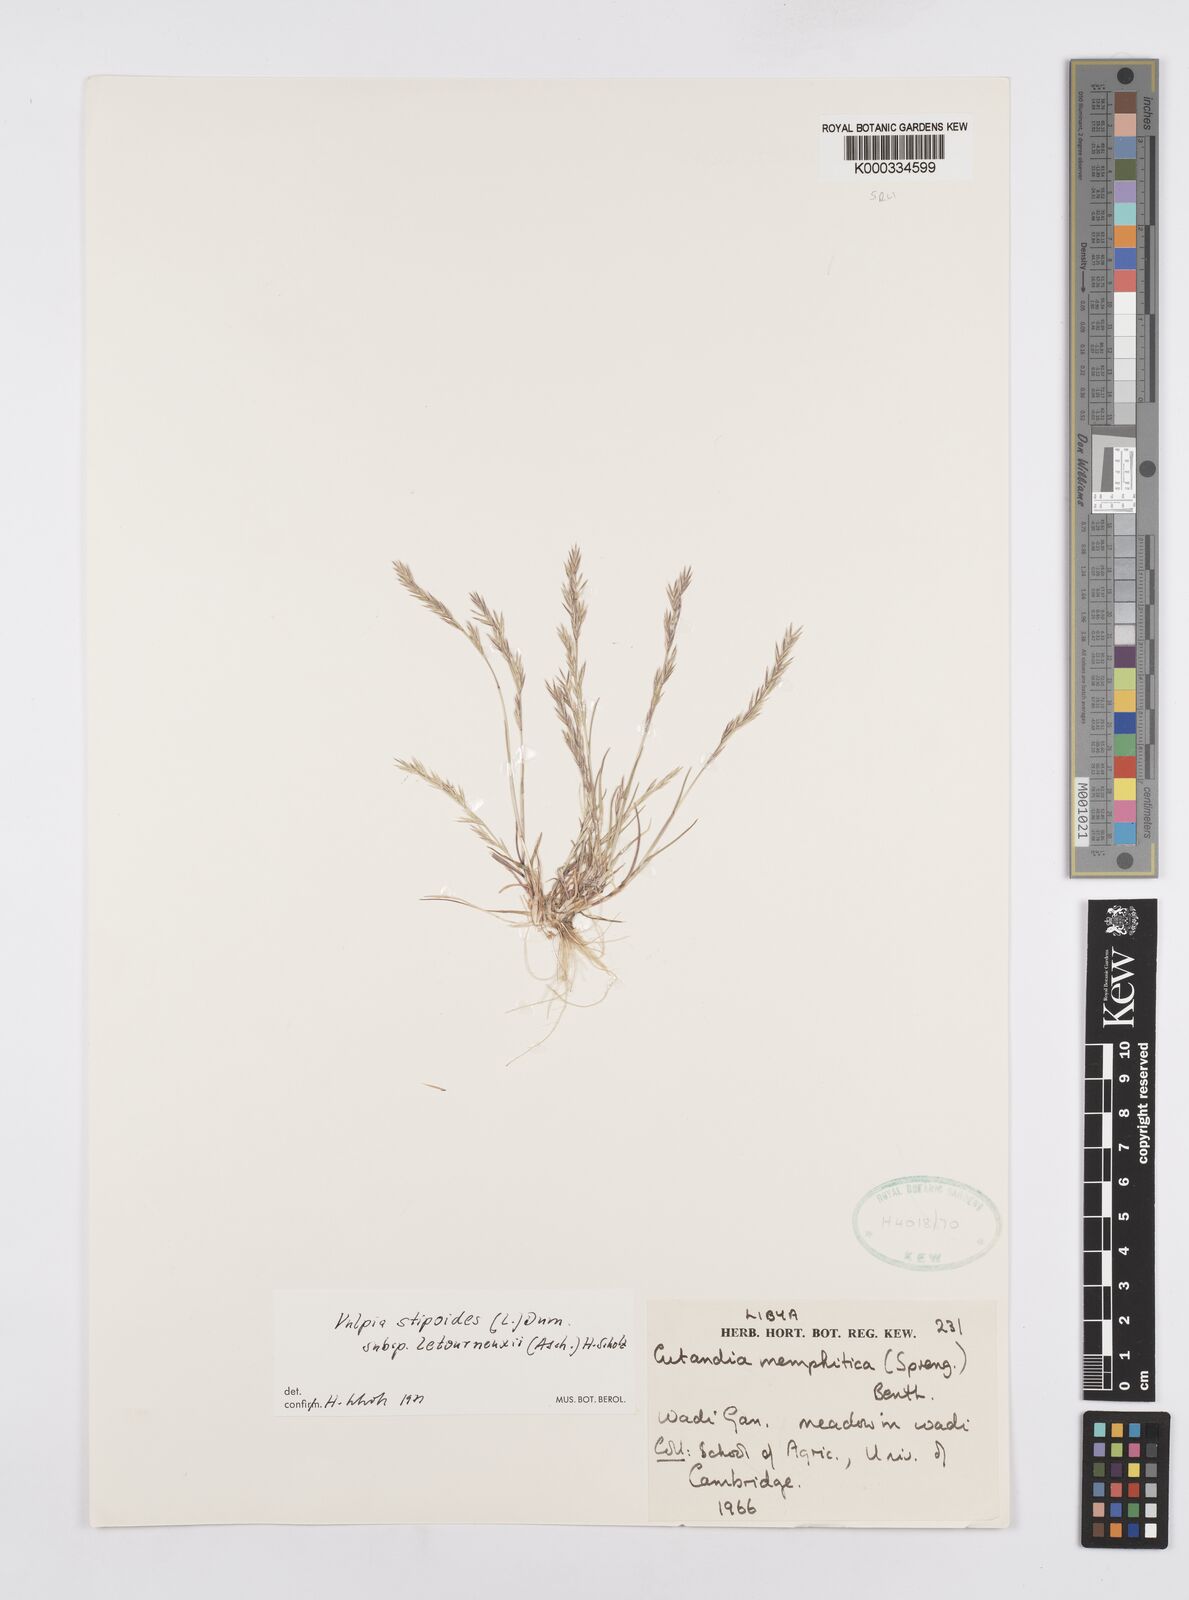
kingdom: Plantae
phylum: Tracheophyta
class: Liliopsida
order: Poales
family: Poaceae
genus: Vulpiella
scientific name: Vulpiella stipoides
